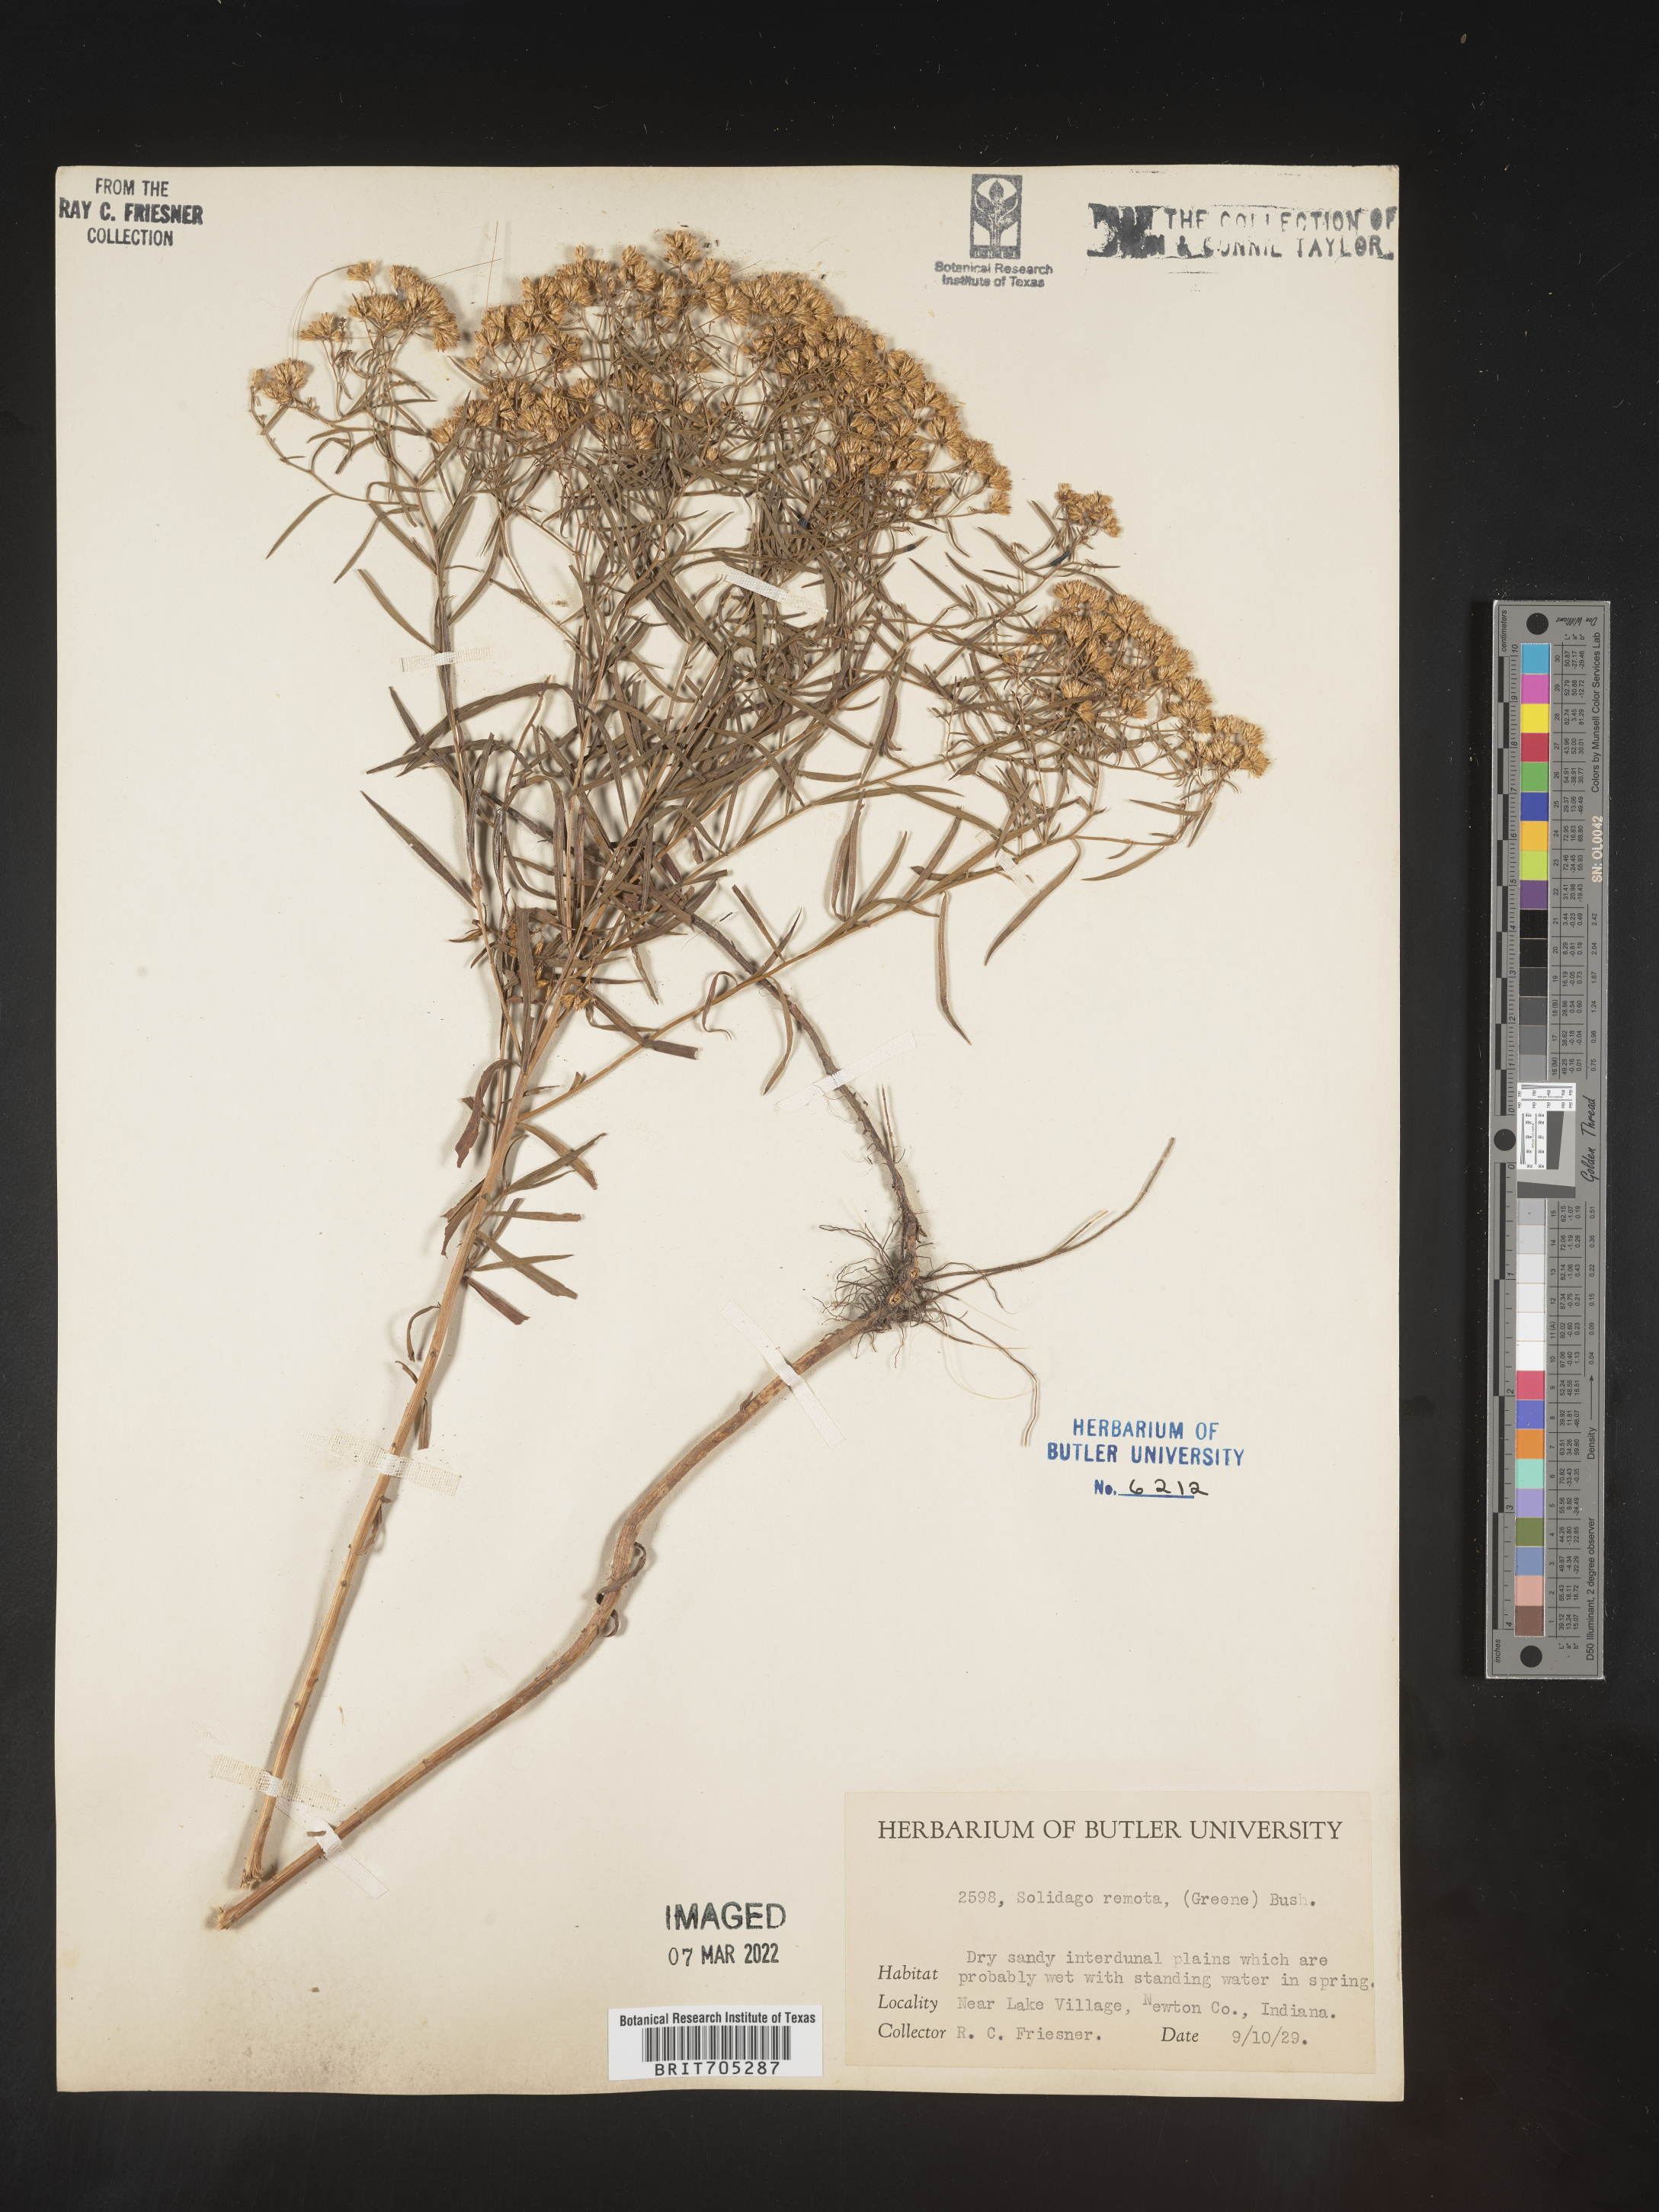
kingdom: Plantae
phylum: Tracheophyta
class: Magnoliopsida
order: Asterales
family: Asteraceae
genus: Euthamia
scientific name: Euthamia gymnospermoides
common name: Great plains goldentop
